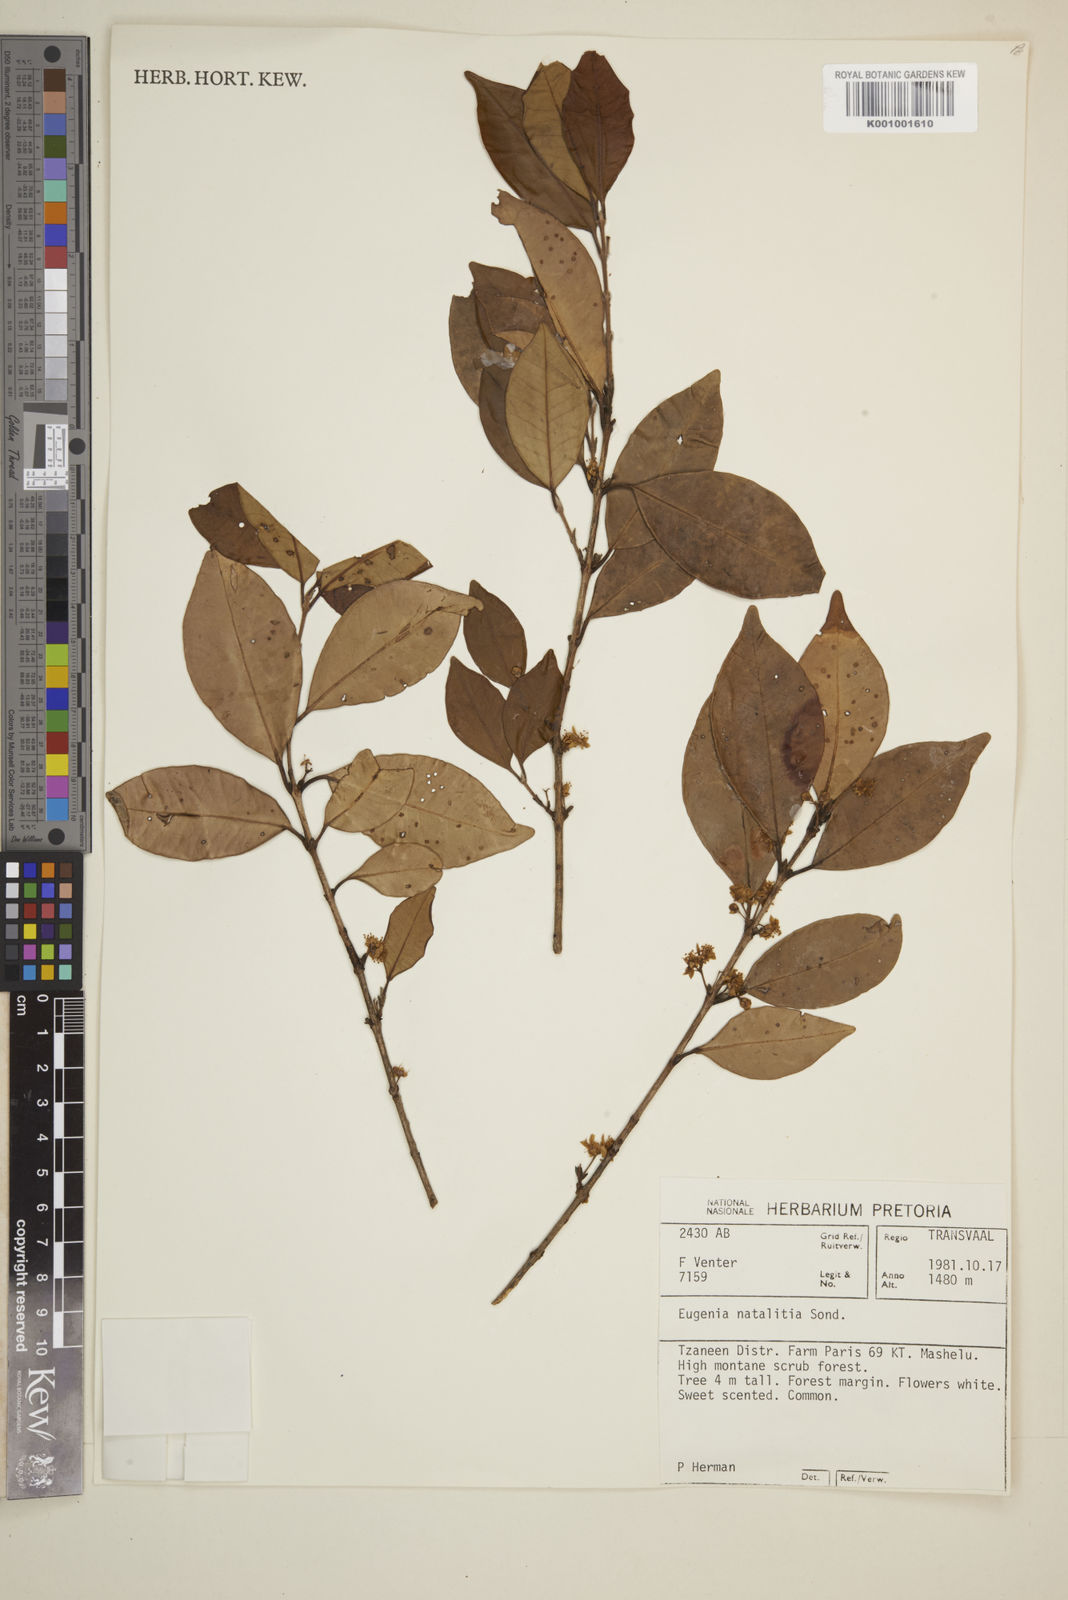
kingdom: Plantae
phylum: Tracheophyta
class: Magnoliopsida
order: Myrtales
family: Myrtaceae
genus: Eugenia
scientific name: Eugenia natalitia
